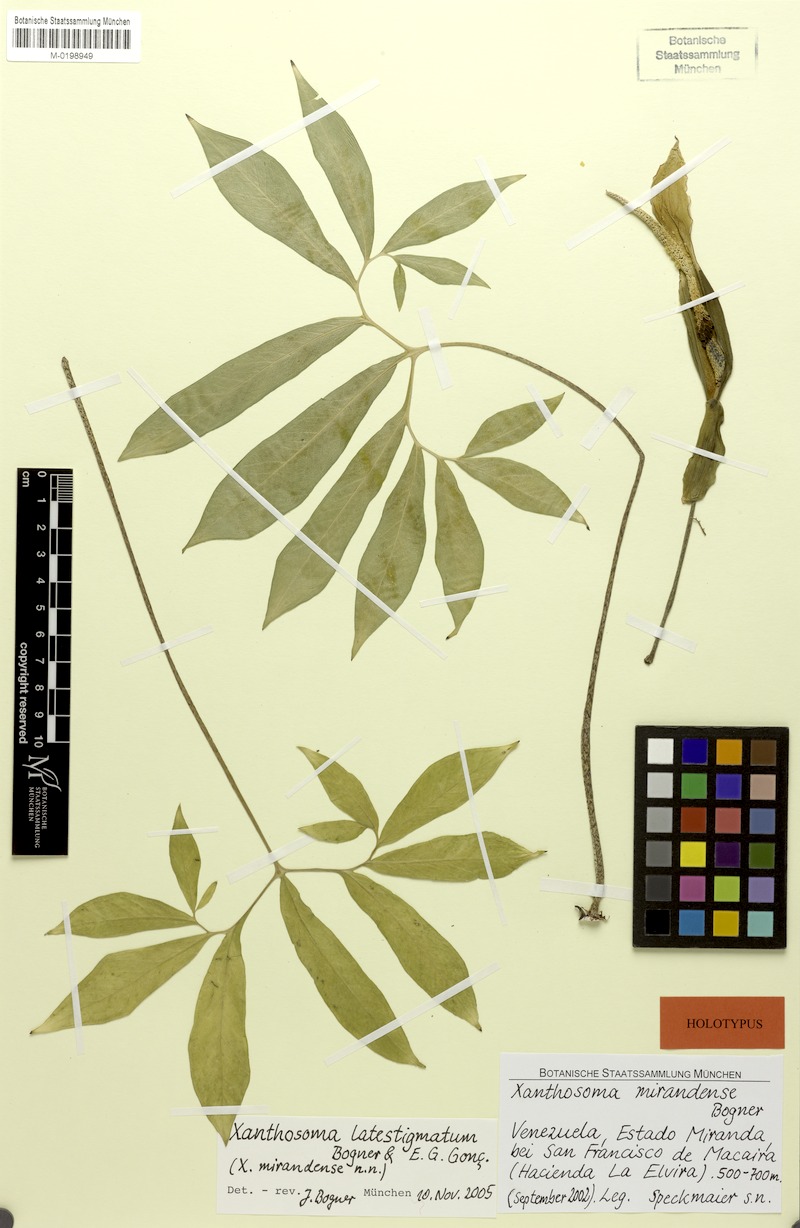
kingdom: Plantae
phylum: Tracheophyta
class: Liliopsida
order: Alismatales
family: Araceae
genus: Xanthosoma
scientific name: Xanthosoma latestigmatum
